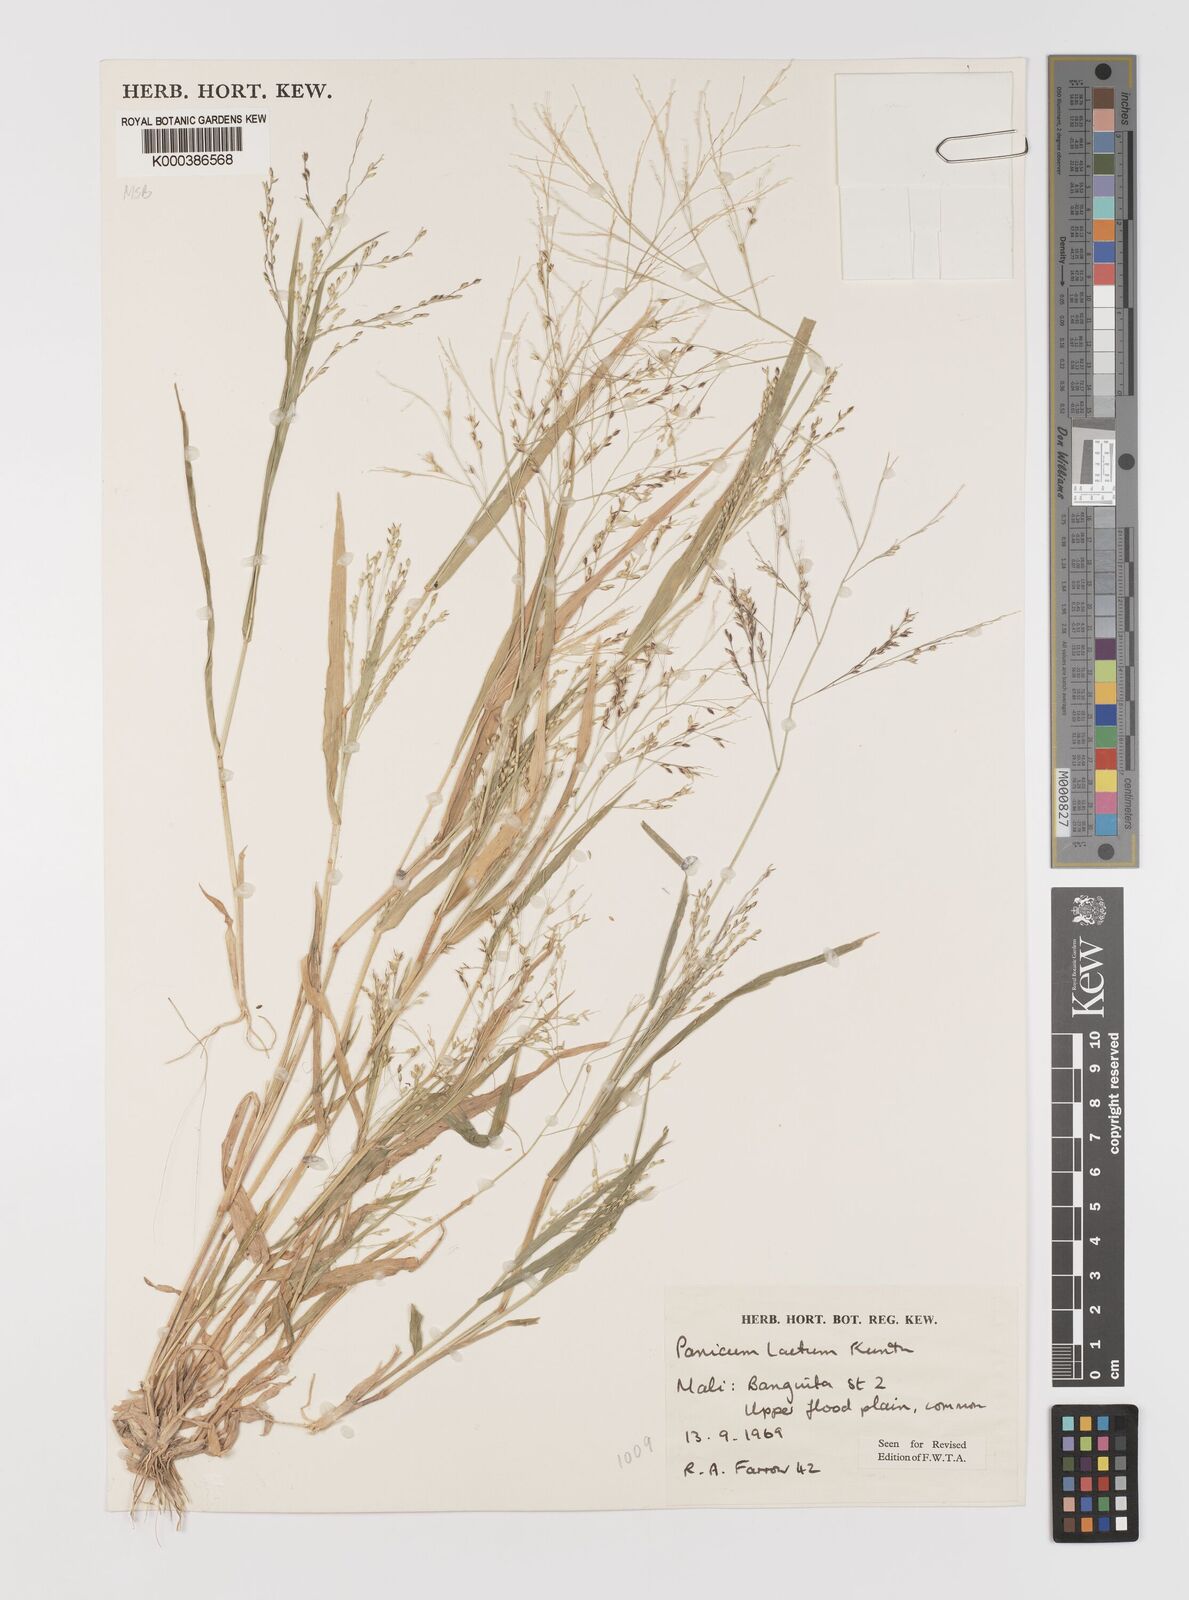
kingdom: Plantae
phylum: Tracheophyta
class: Liliopsida
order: Poales
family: Poaceae
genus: Panicum
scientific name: Panicum laetum
